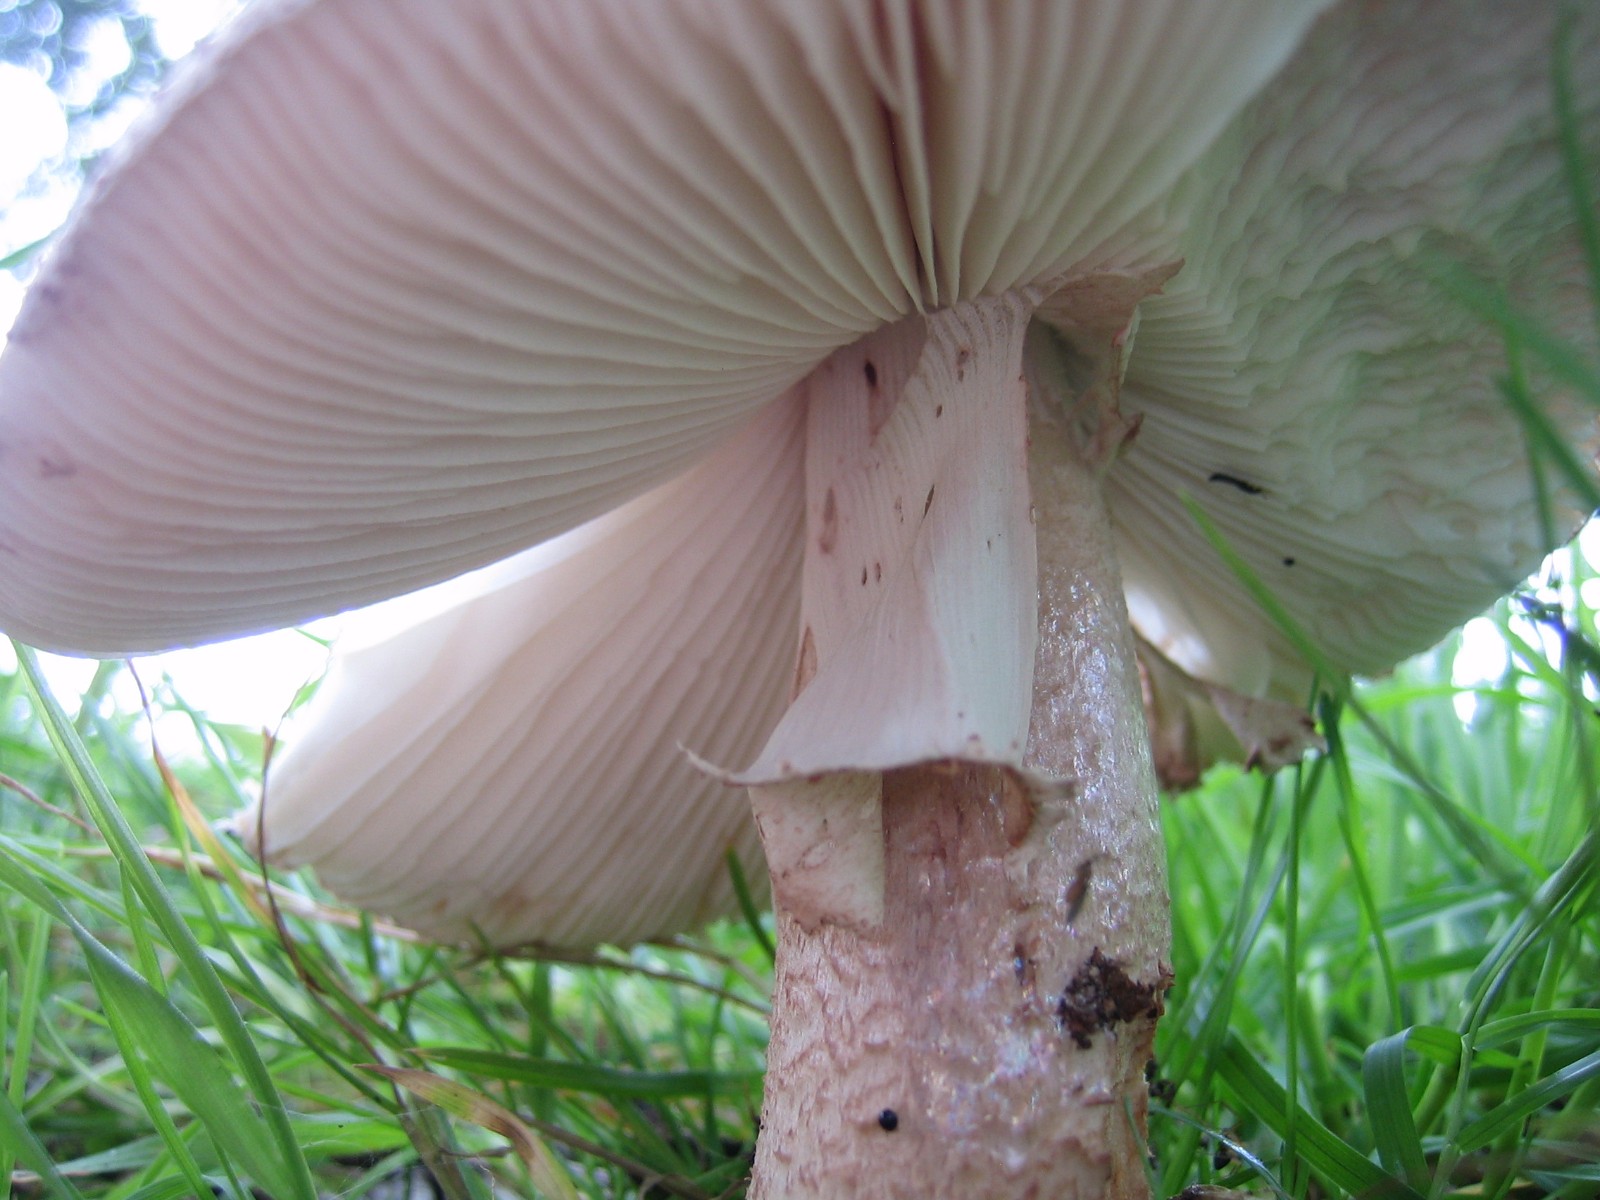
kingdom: Fungi
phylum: Basidiomycota
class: Agaricomycetes
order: Agaricales
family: Amanitaceae
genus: Amanita
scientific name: Amanita rubescens
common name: rødmende fluesvamp
